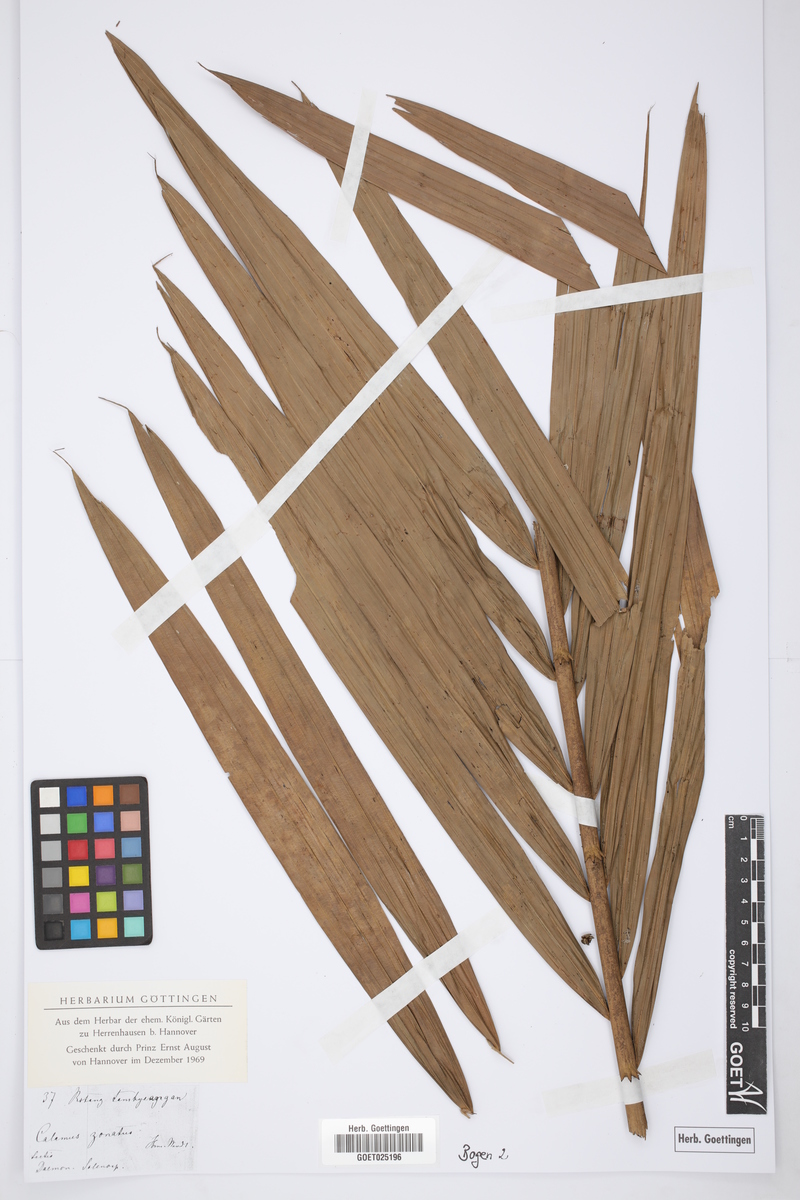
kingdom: Plantae
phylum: Tracheophyta
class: Liliopsida
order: Arecales
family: Arecaceae
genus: Calamus
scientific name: Calamus zonatus
